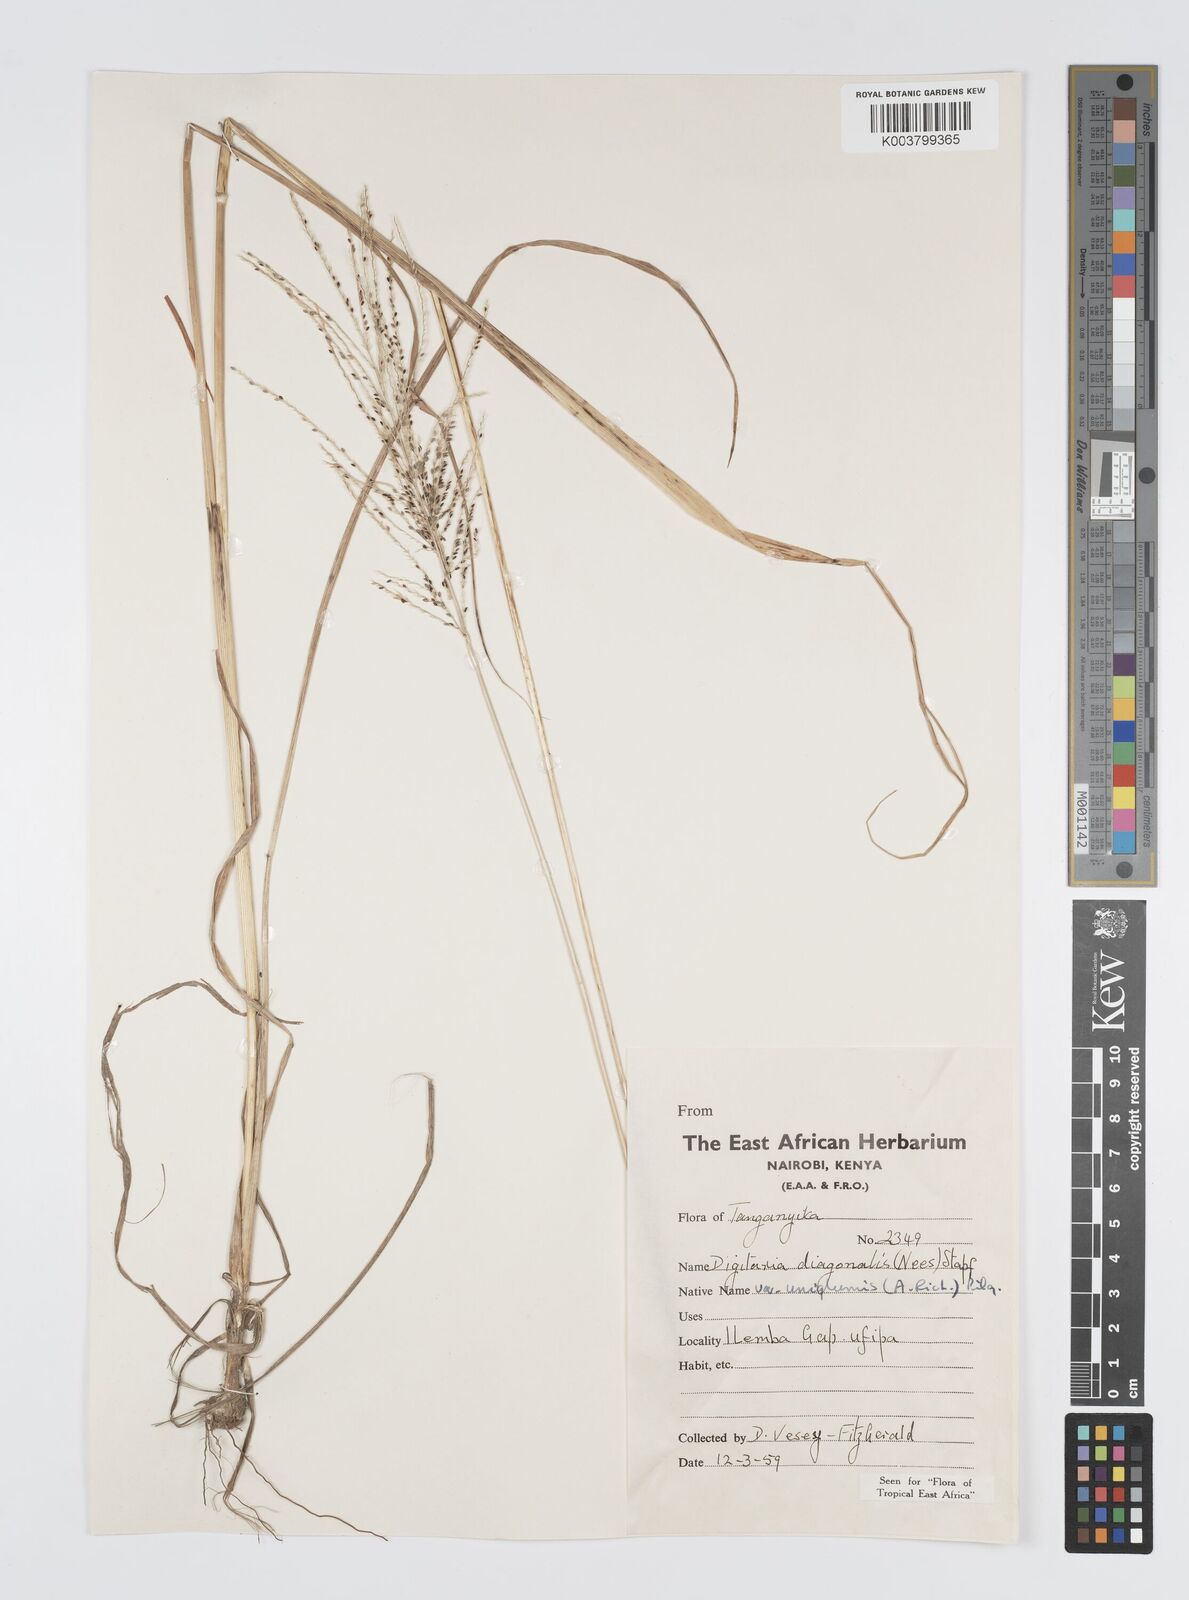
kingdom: Plantae
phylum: Tracheophyta
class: Liliopsida
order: Poales
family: Poaceae
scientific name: Poaceae
